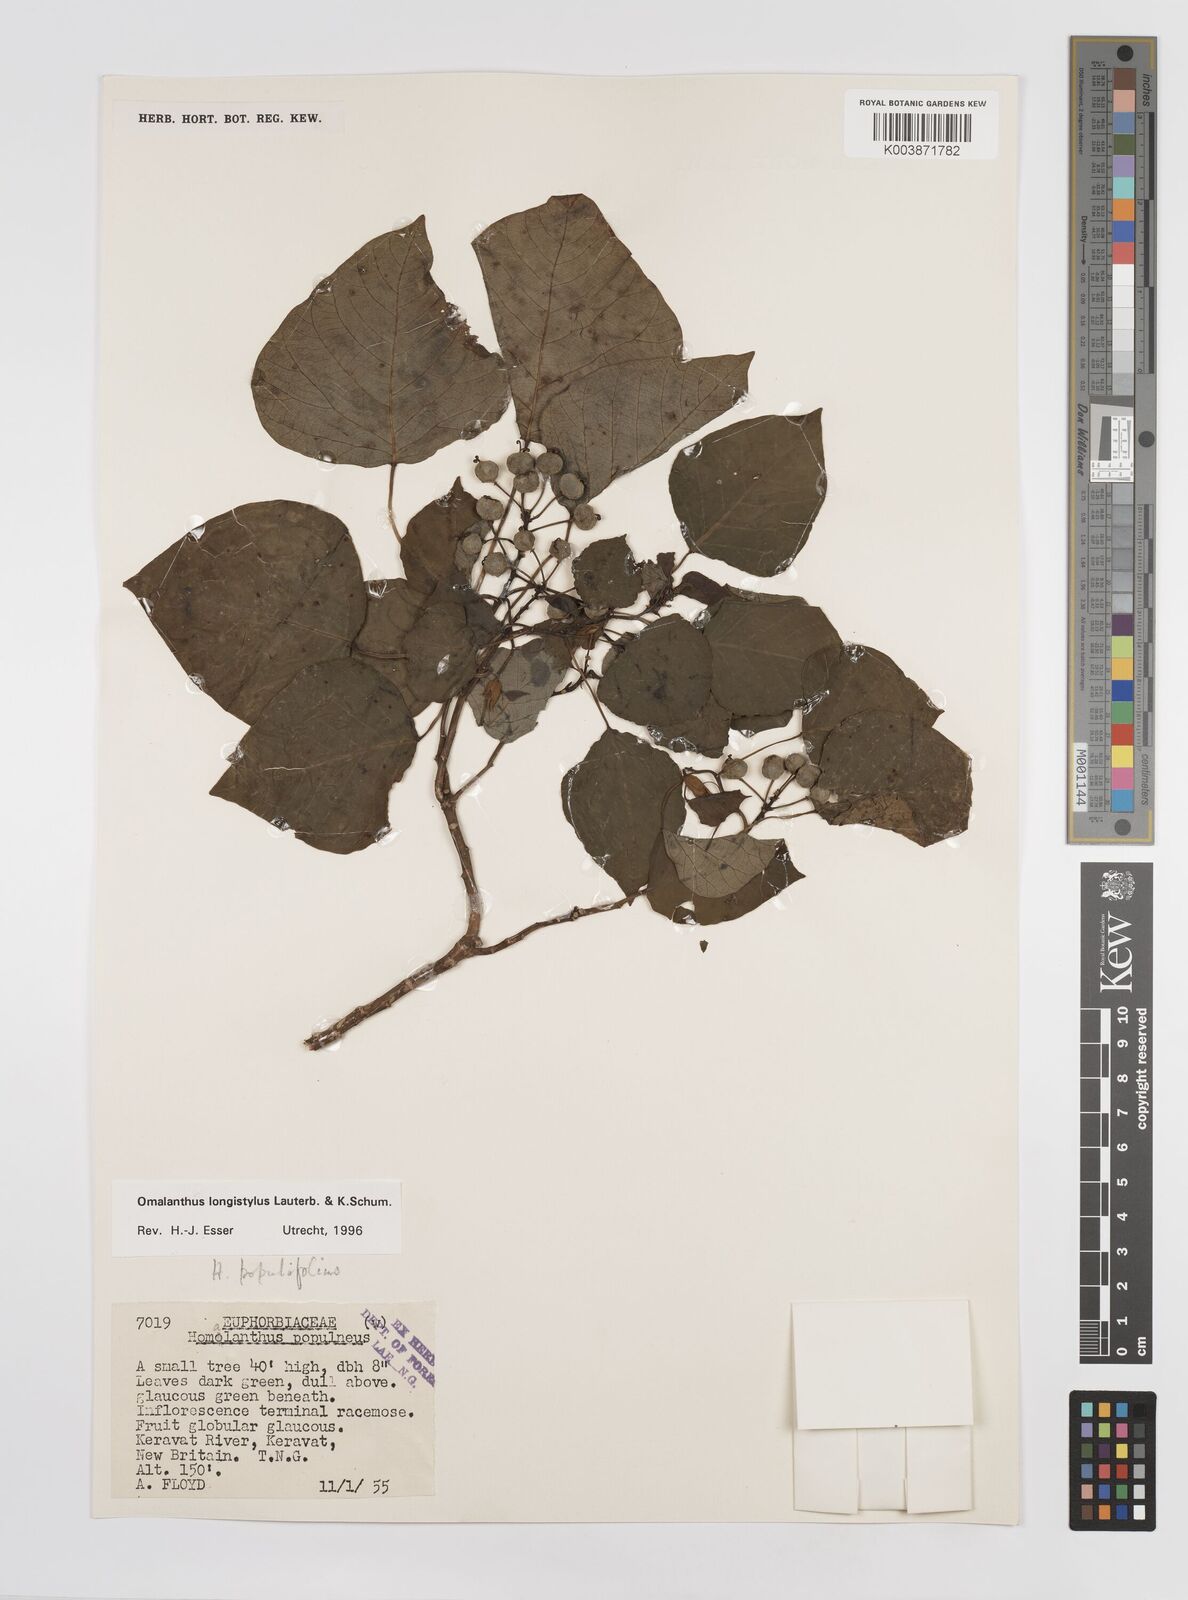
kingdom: Plantae
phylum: Tracheophyta
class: Magnoliopsida
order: Malpighiales
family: Euphorbiaceae
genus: Homalanthus
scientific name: Homalanthus longistylus
